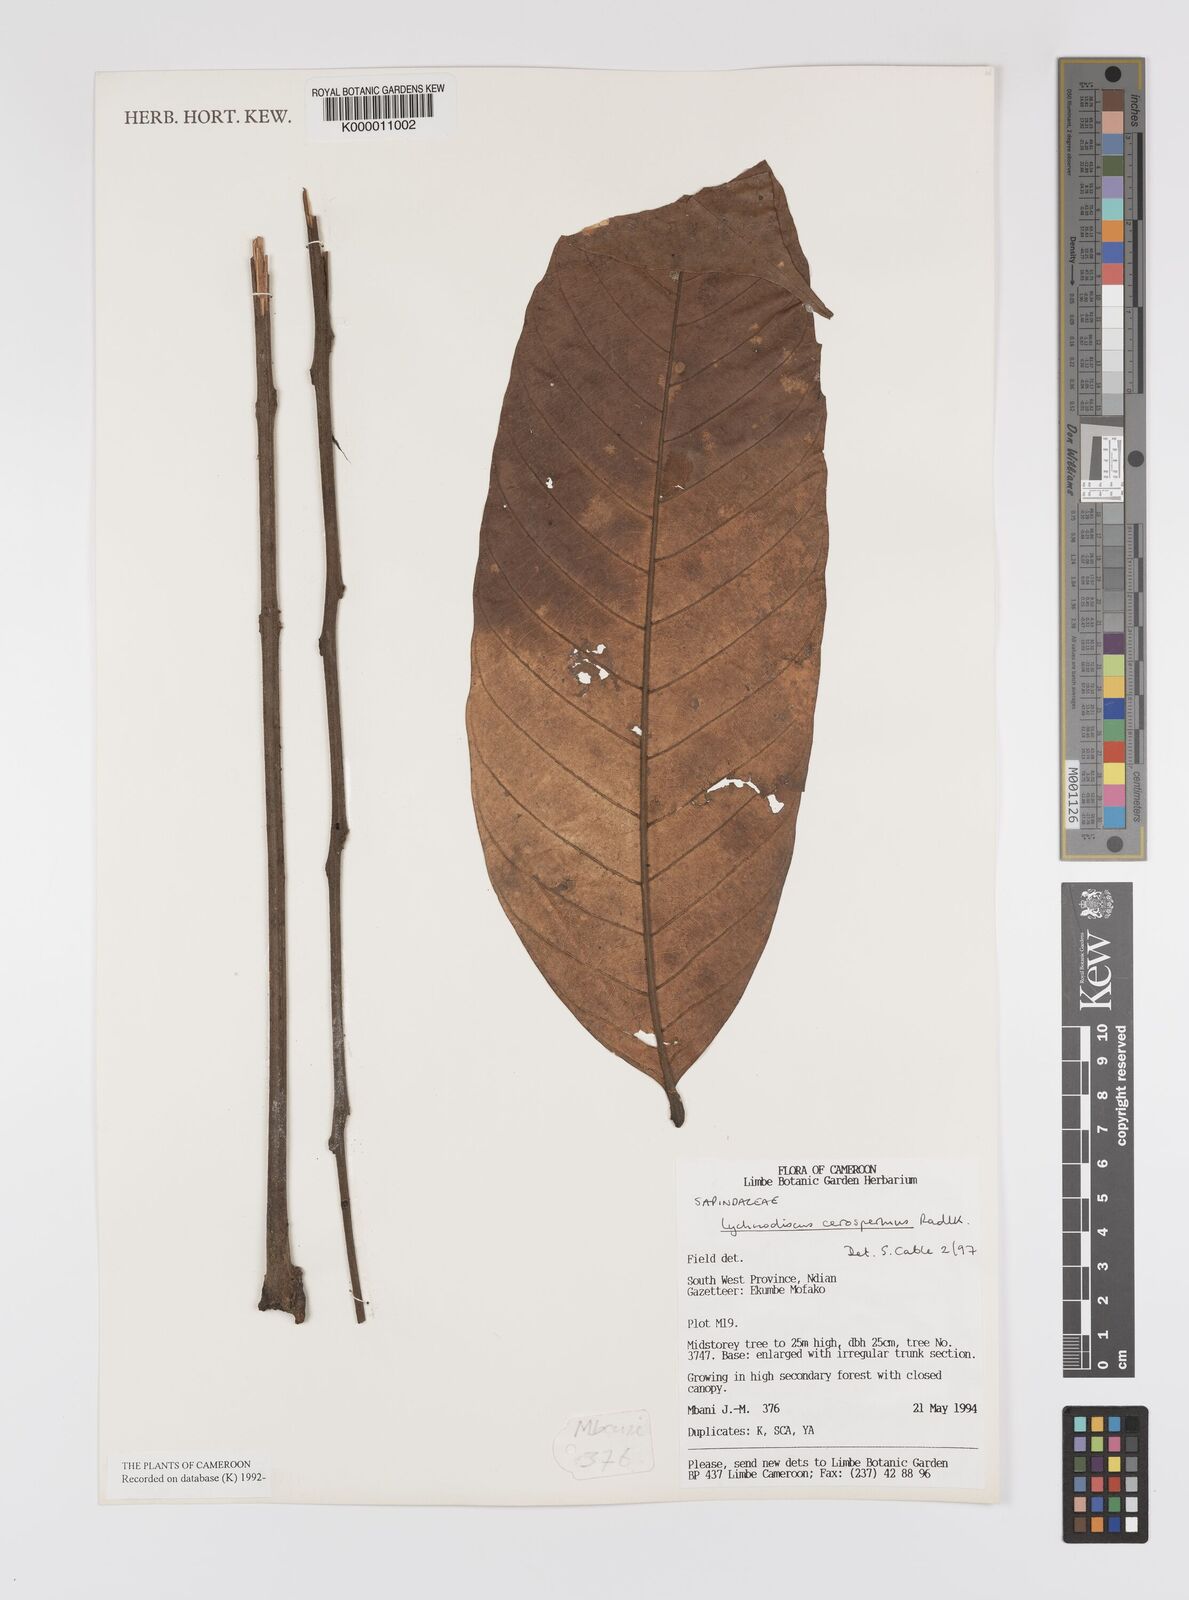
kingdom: Plantae
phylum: Tracheophyta
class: Magnoliopsida
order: Sapindales
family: Sapindaceae
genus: Lychnodiscus
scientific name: Lychnodiscus cerospermus
